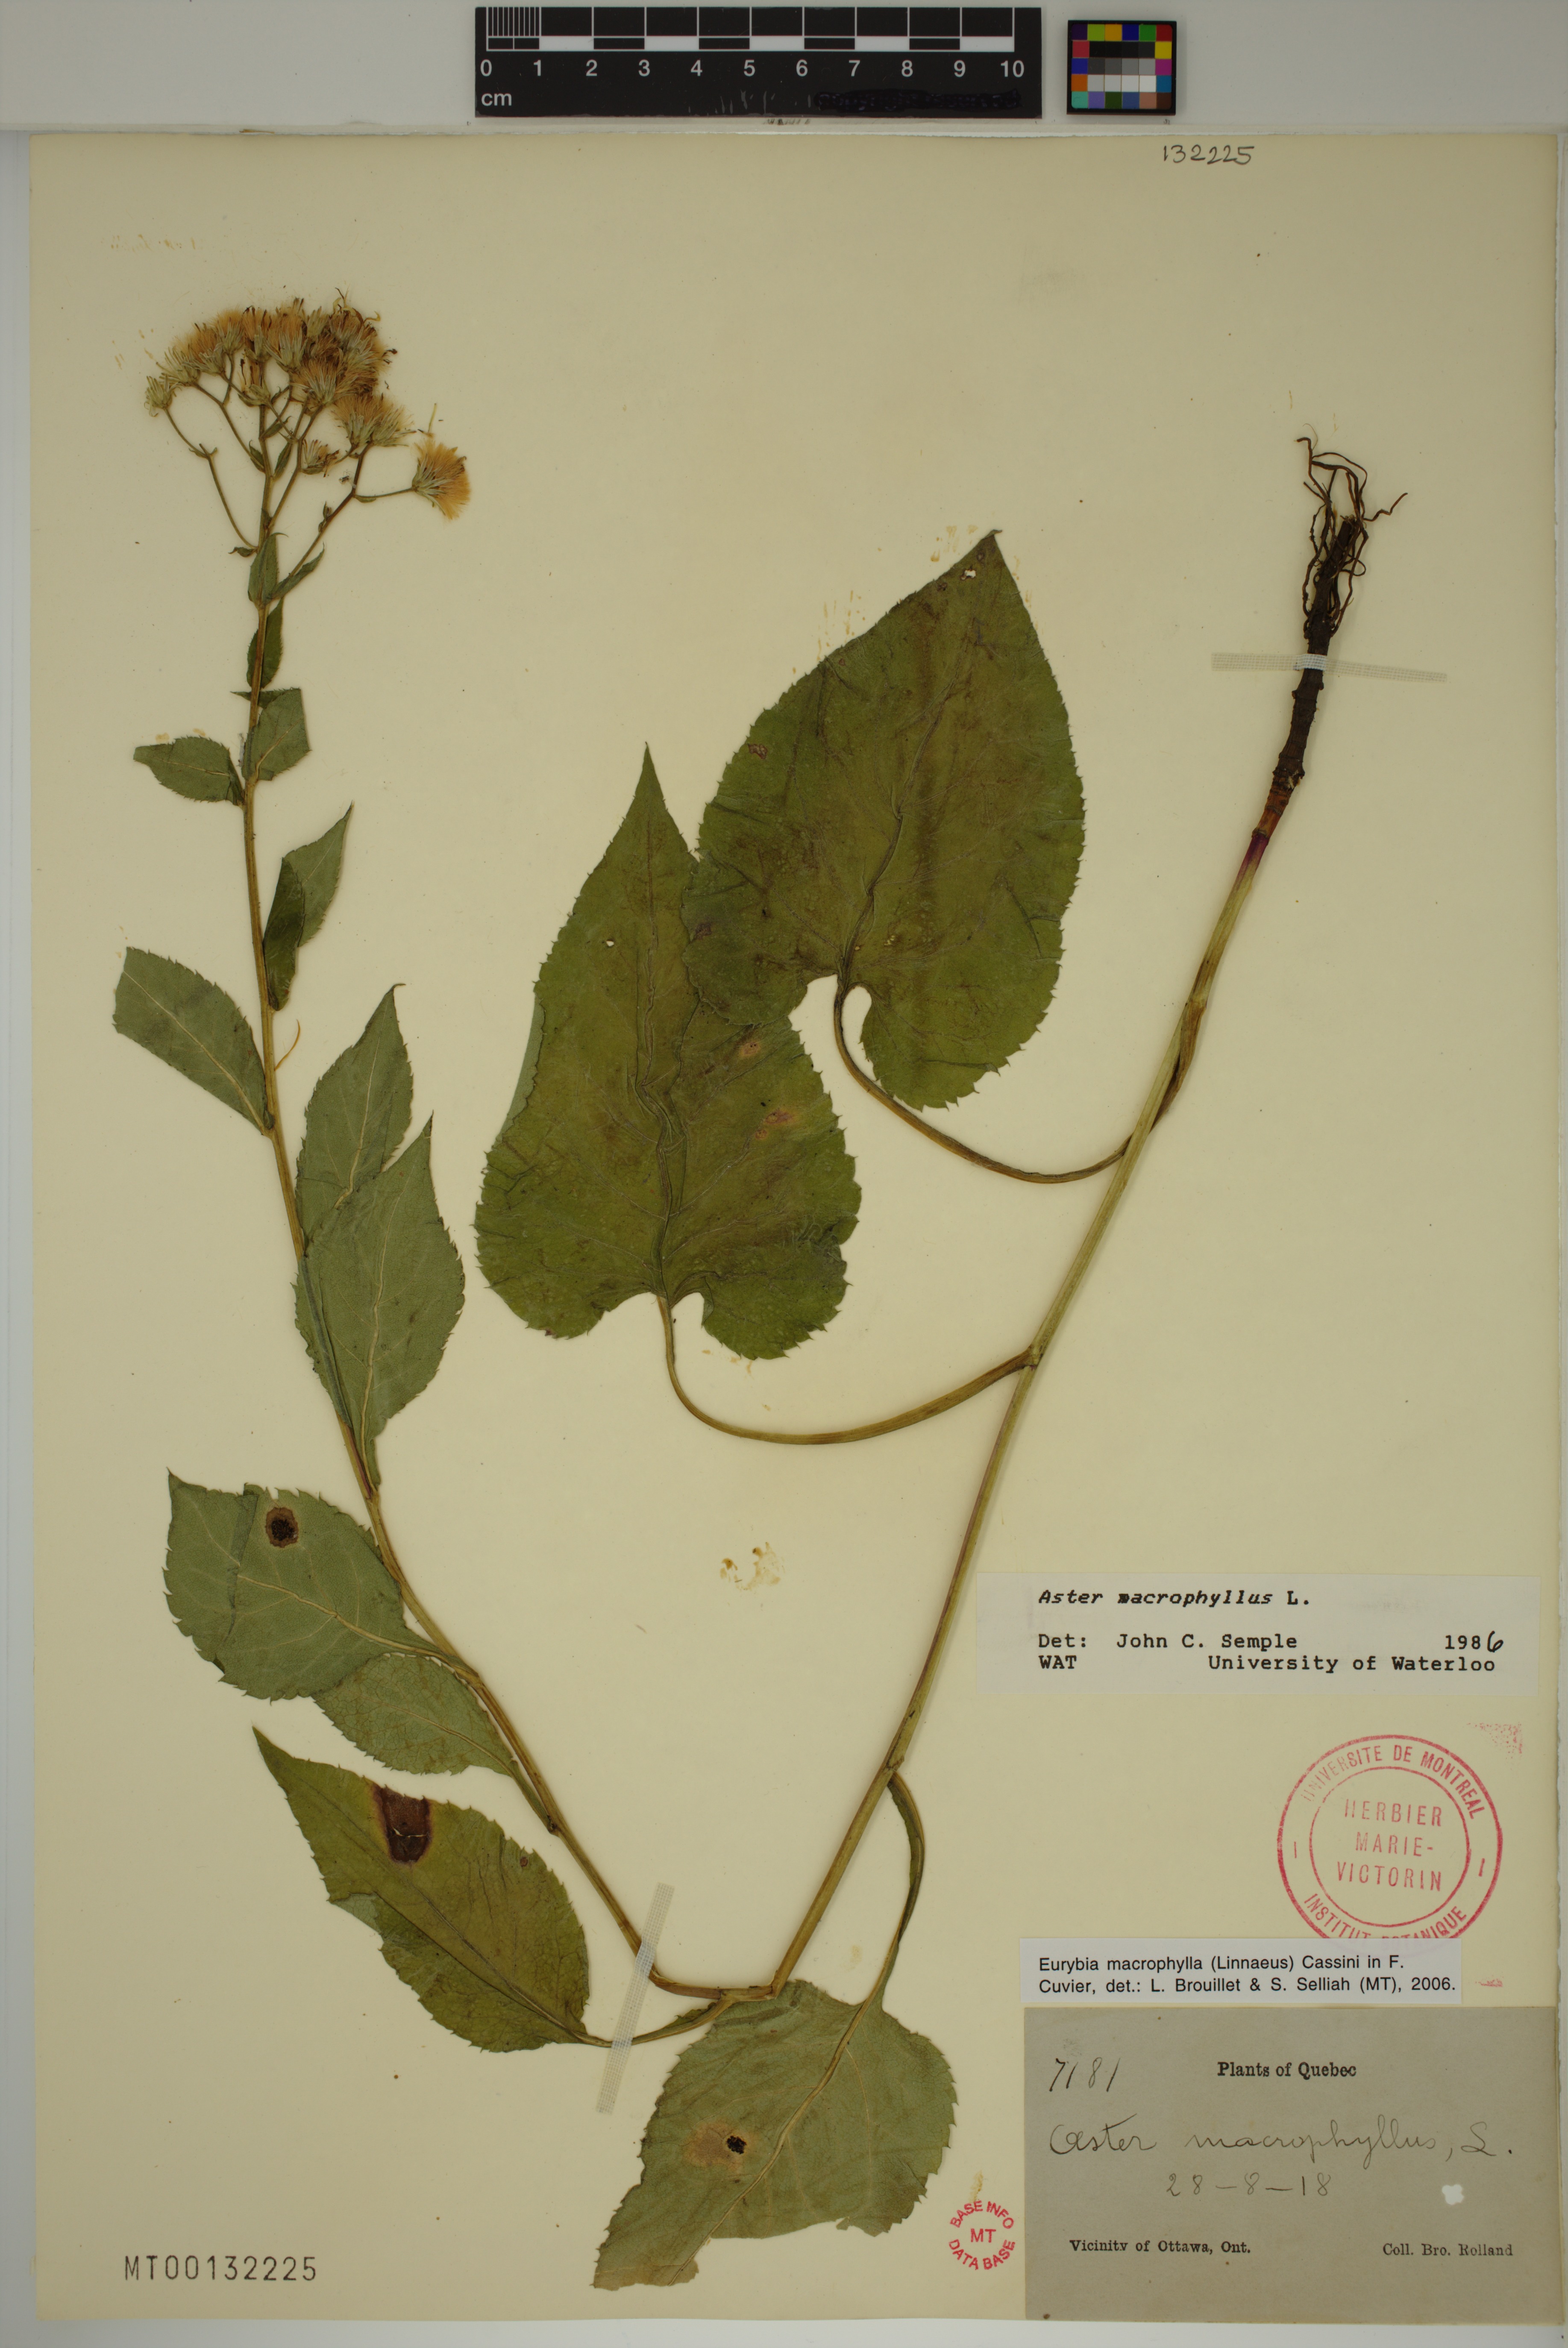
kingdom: Plantae
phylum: Tracheophyta
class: Magnoliopsida
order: Asterales
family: Asteraceae
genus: Eurybia
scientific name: Eurybia macrophylla
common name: Big-leaved aster
